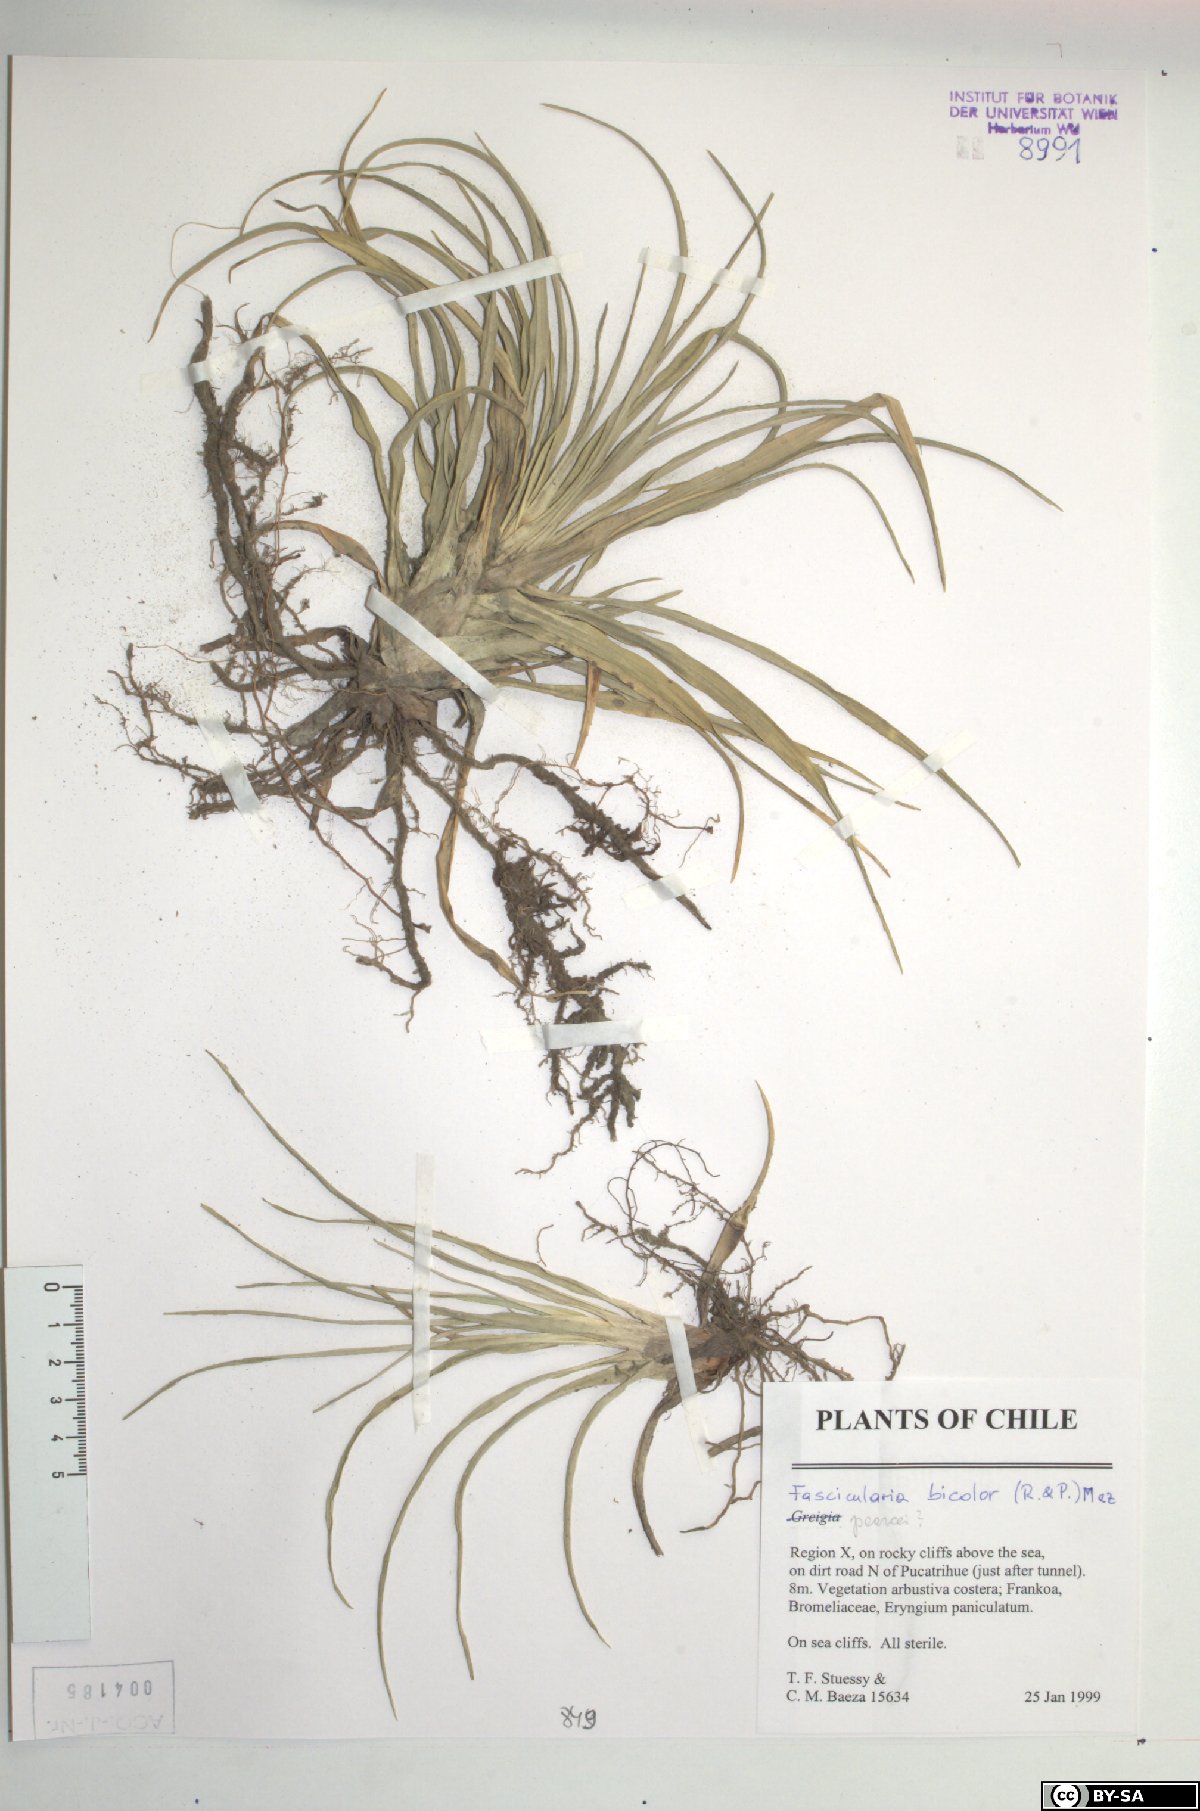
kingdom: Plantae
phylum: Tracheophyta
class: Liliopsida
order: Poales
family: Bromeliaceae
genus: Fascicularia
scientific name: Fascicularia bicolor
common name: Rhodostachys
